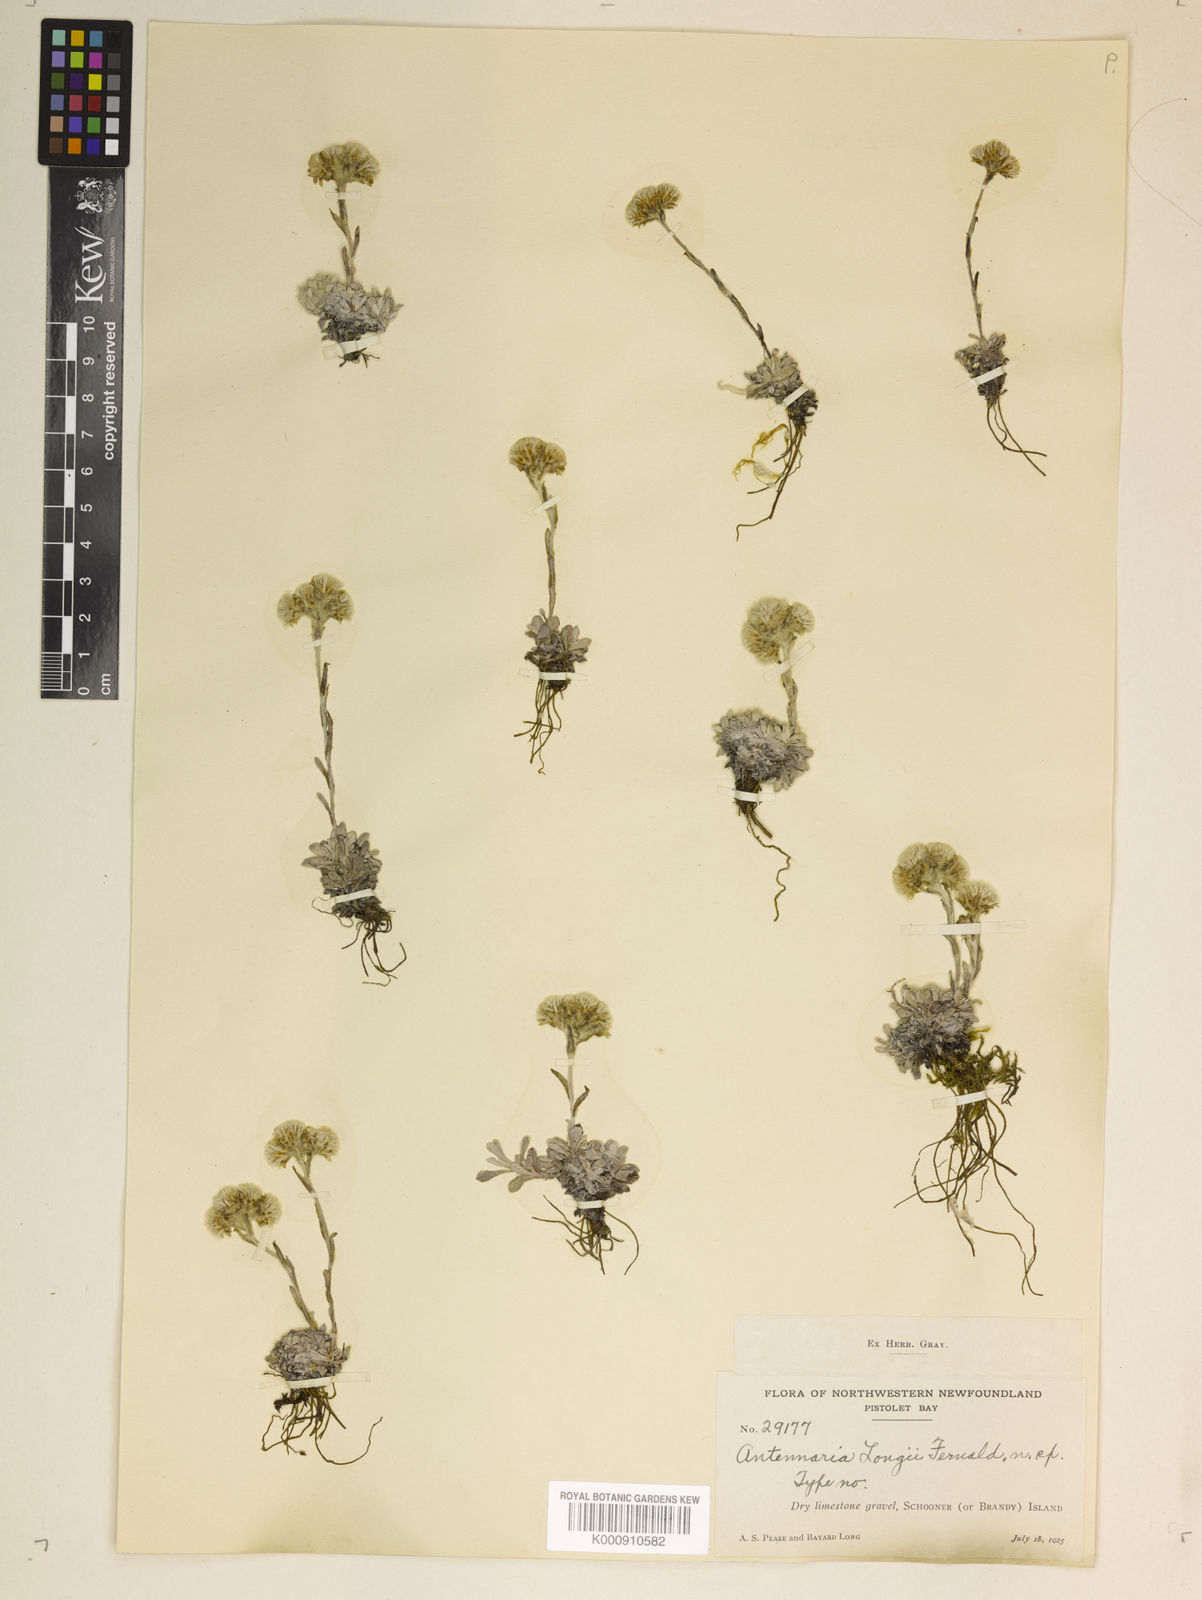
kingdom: Plantae
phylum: Tracheophyta
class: Magnoliopsida
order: Asterales
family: Asteraceae
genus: Antennaria
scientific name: Antennaria alpina
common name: Alpine pussytoes
